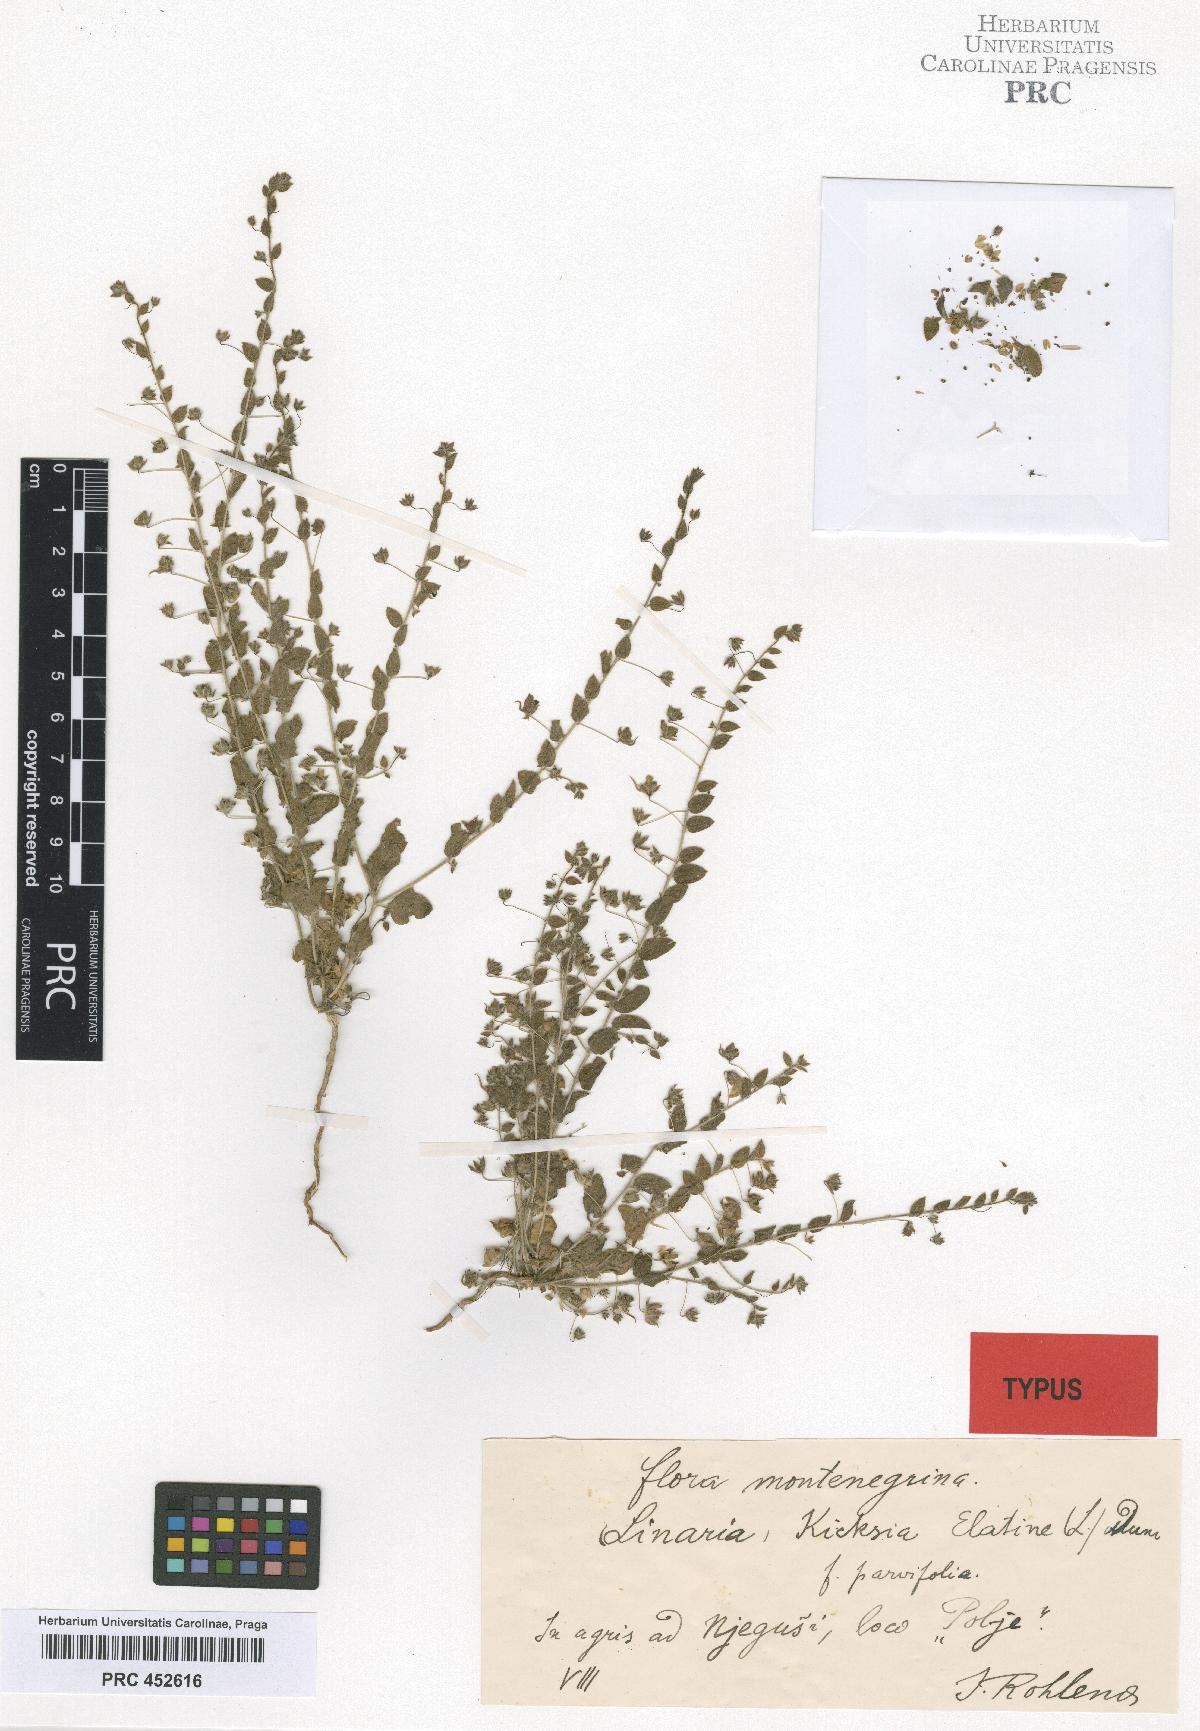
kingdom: Plantae
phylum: Tracheophyta
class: Magnoliopsida
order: Lamiales
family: Plantaginaceae
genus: Kickxia
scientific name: Kickxia elatine
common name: Sharp-leaved fluellen
